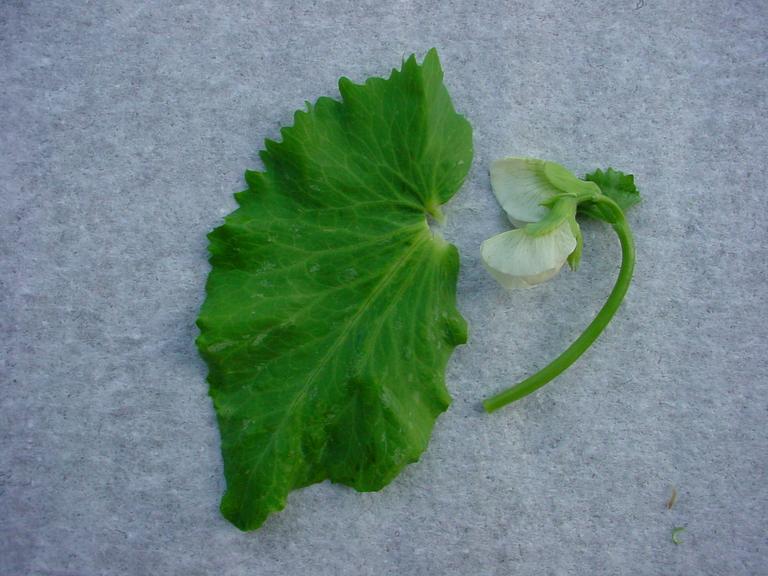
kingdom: Plantae
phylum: Tracheophyta
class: Magnoliopsida
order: Fabales
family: Fabaceae
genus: Lathyrus
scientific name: Lathyrus oleraceus
